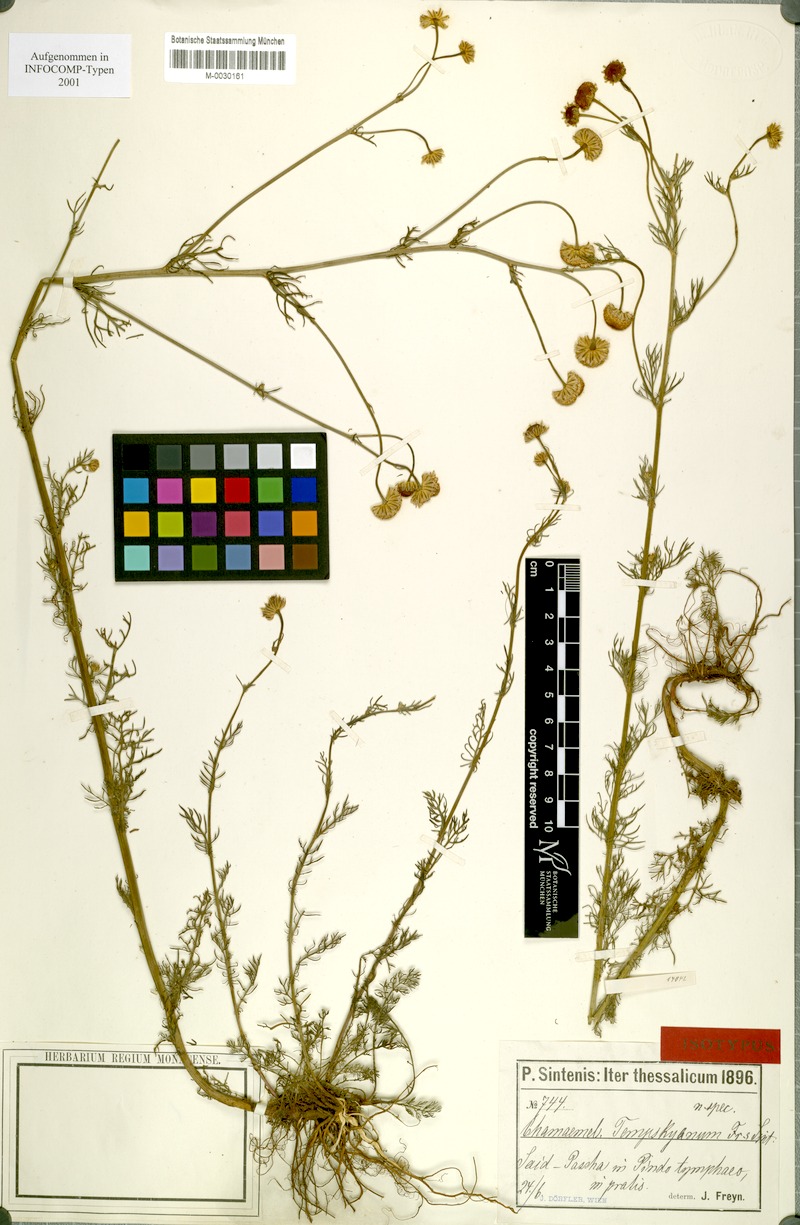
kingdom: Plantae
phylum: Tracheophyta
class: Magnoliopsida
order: Asterales
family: Asteraceae
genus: Tripleurospermum
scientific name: Tripleurospermum tempskyanum
